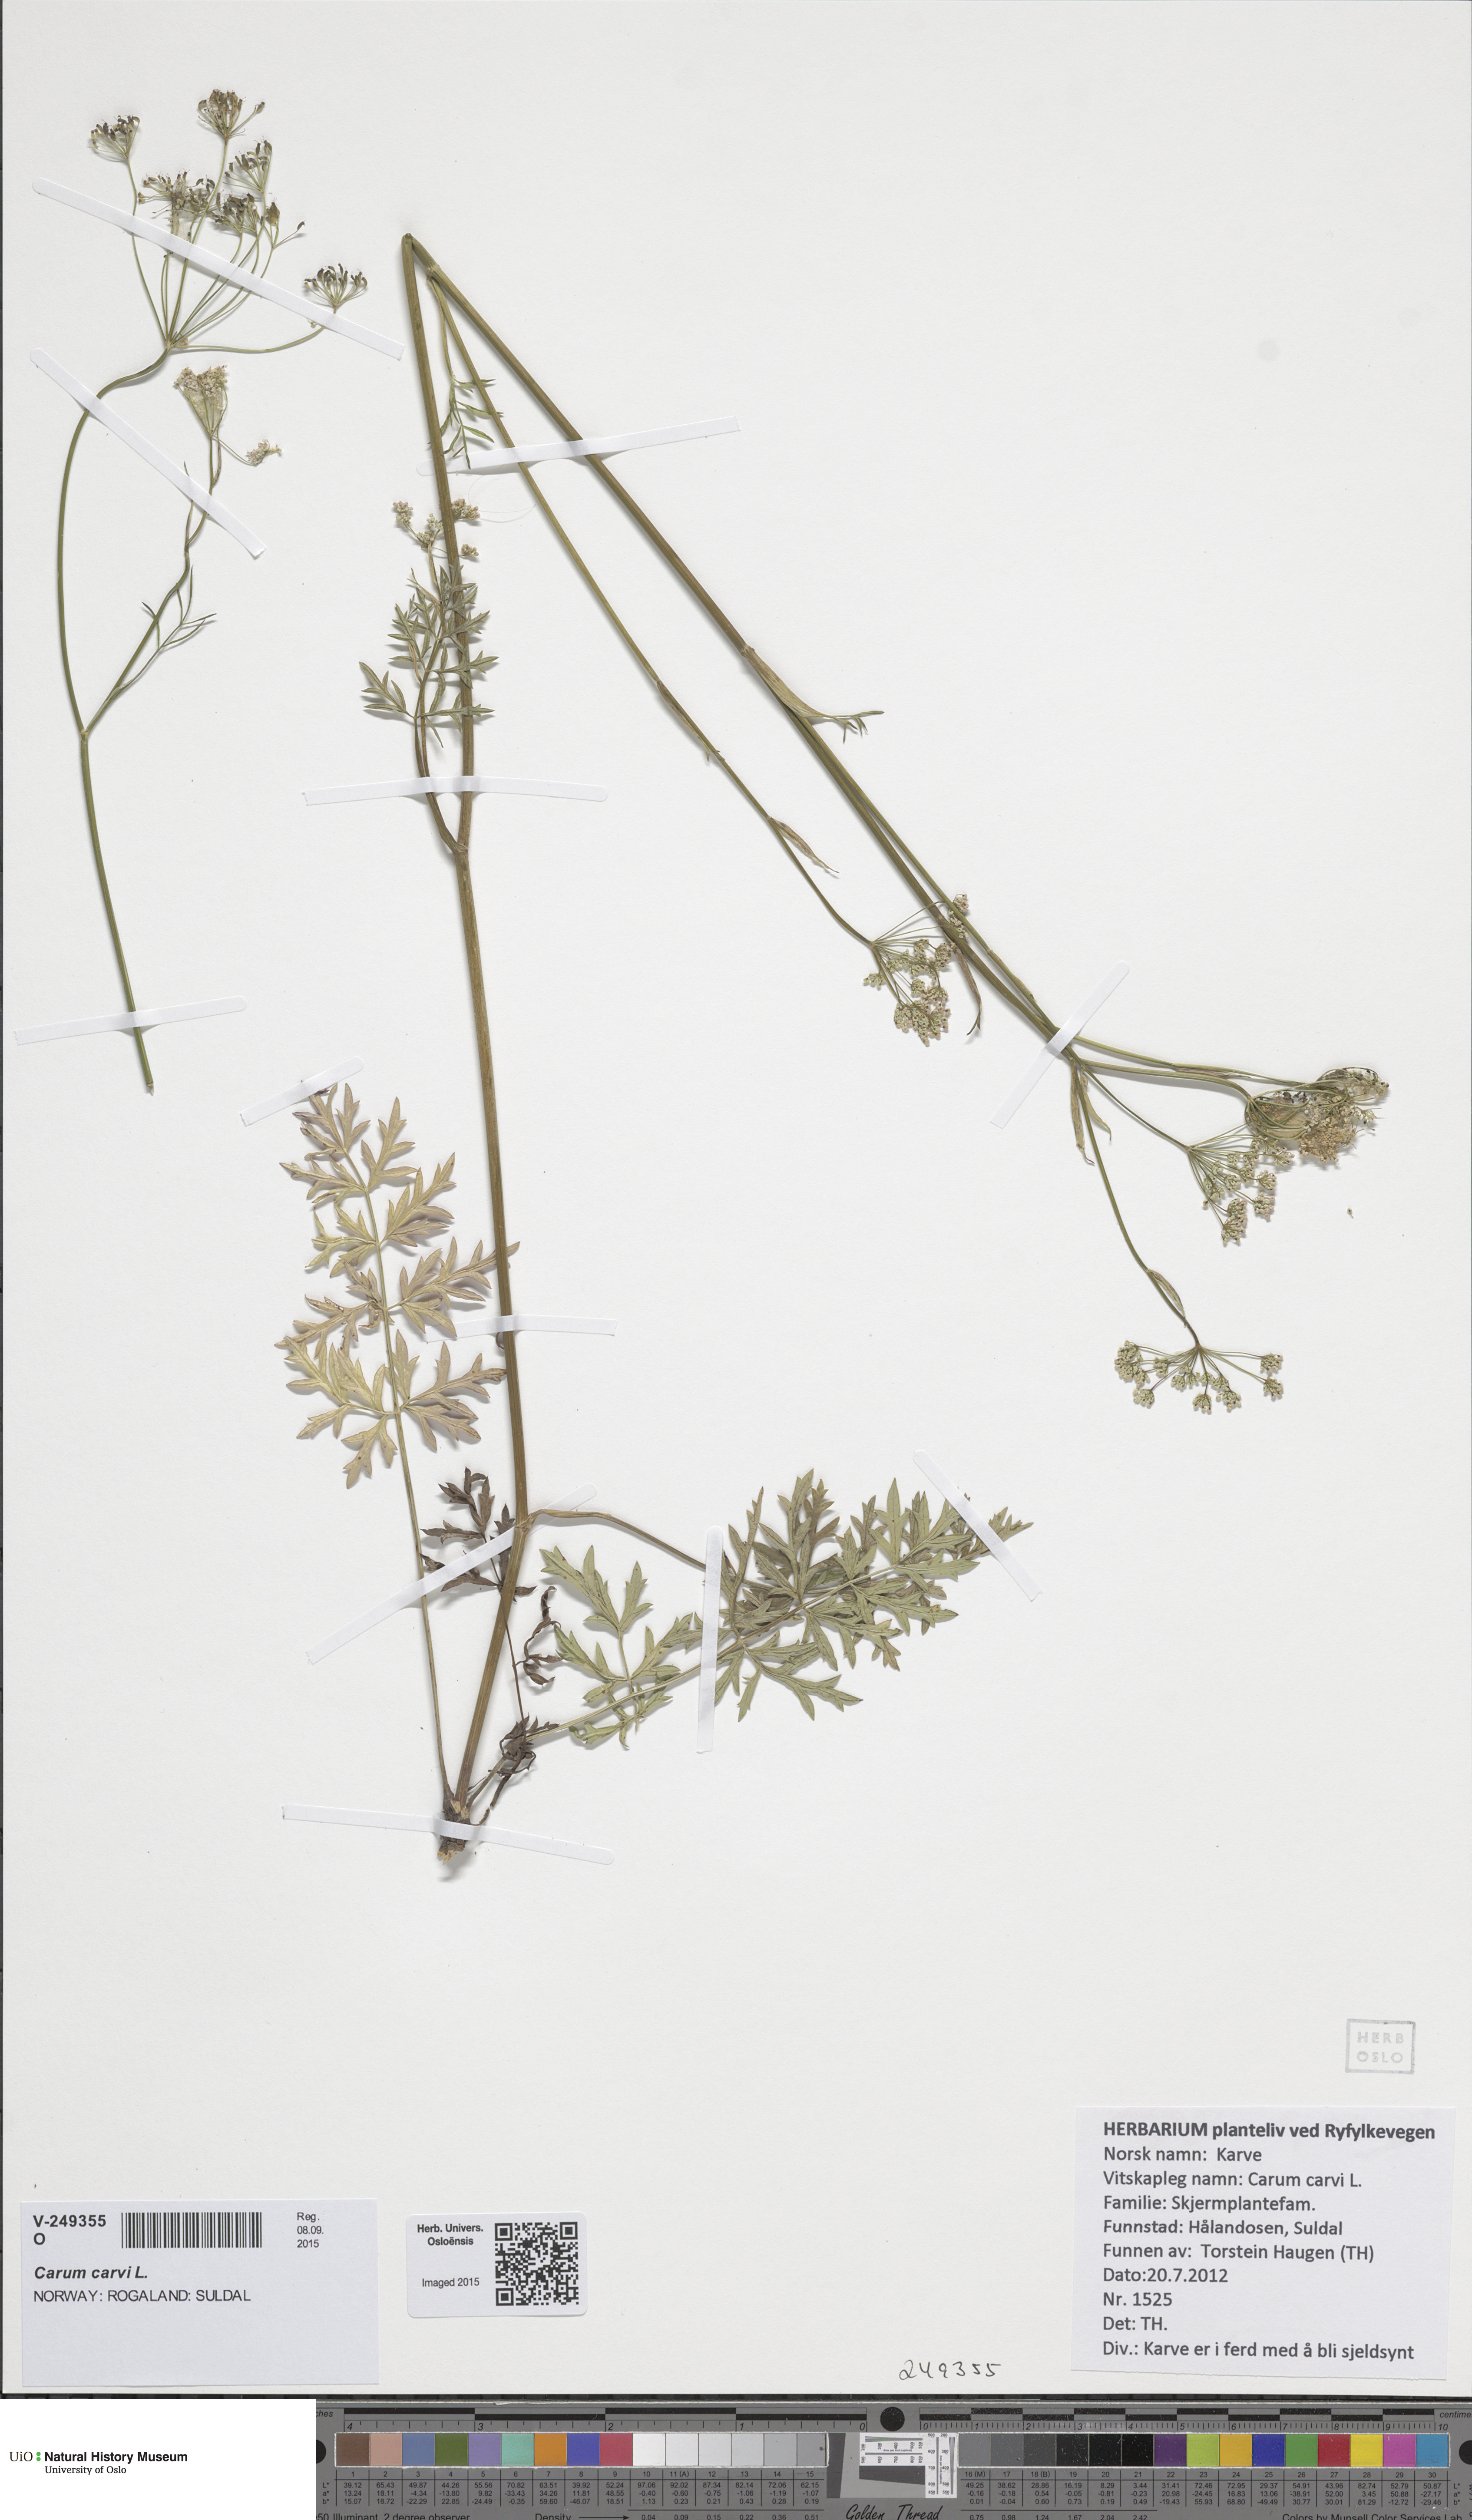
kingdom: Plantae
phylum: Tracheophyta
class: Magnoliopsida
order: Apiales
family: Apiaceae
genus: Pimpinella
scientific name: Pimpinella saxifraga
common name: Burnet-saxifrage
